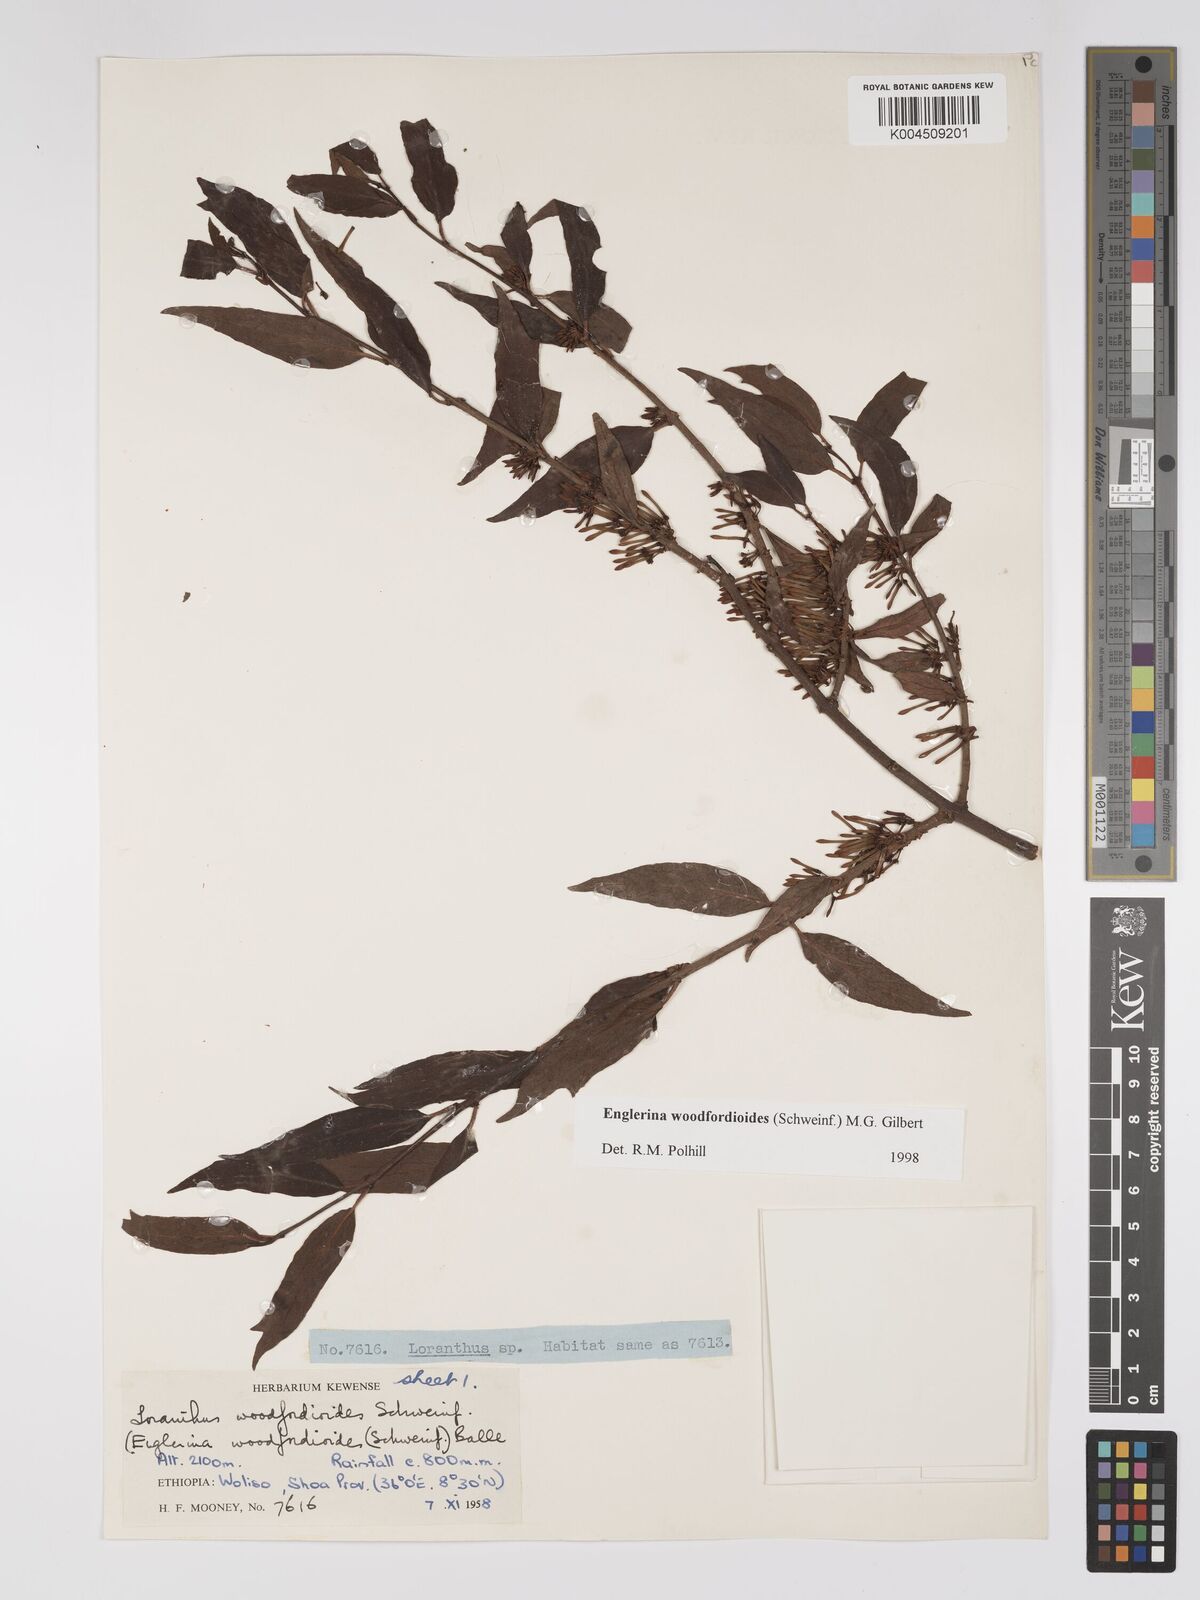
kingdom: Plantae
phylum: Tracheophyta
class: Magnoliopsida
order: Santalales
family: Loranthaceae
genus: Englerina
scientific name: Englerina woodfordioides
